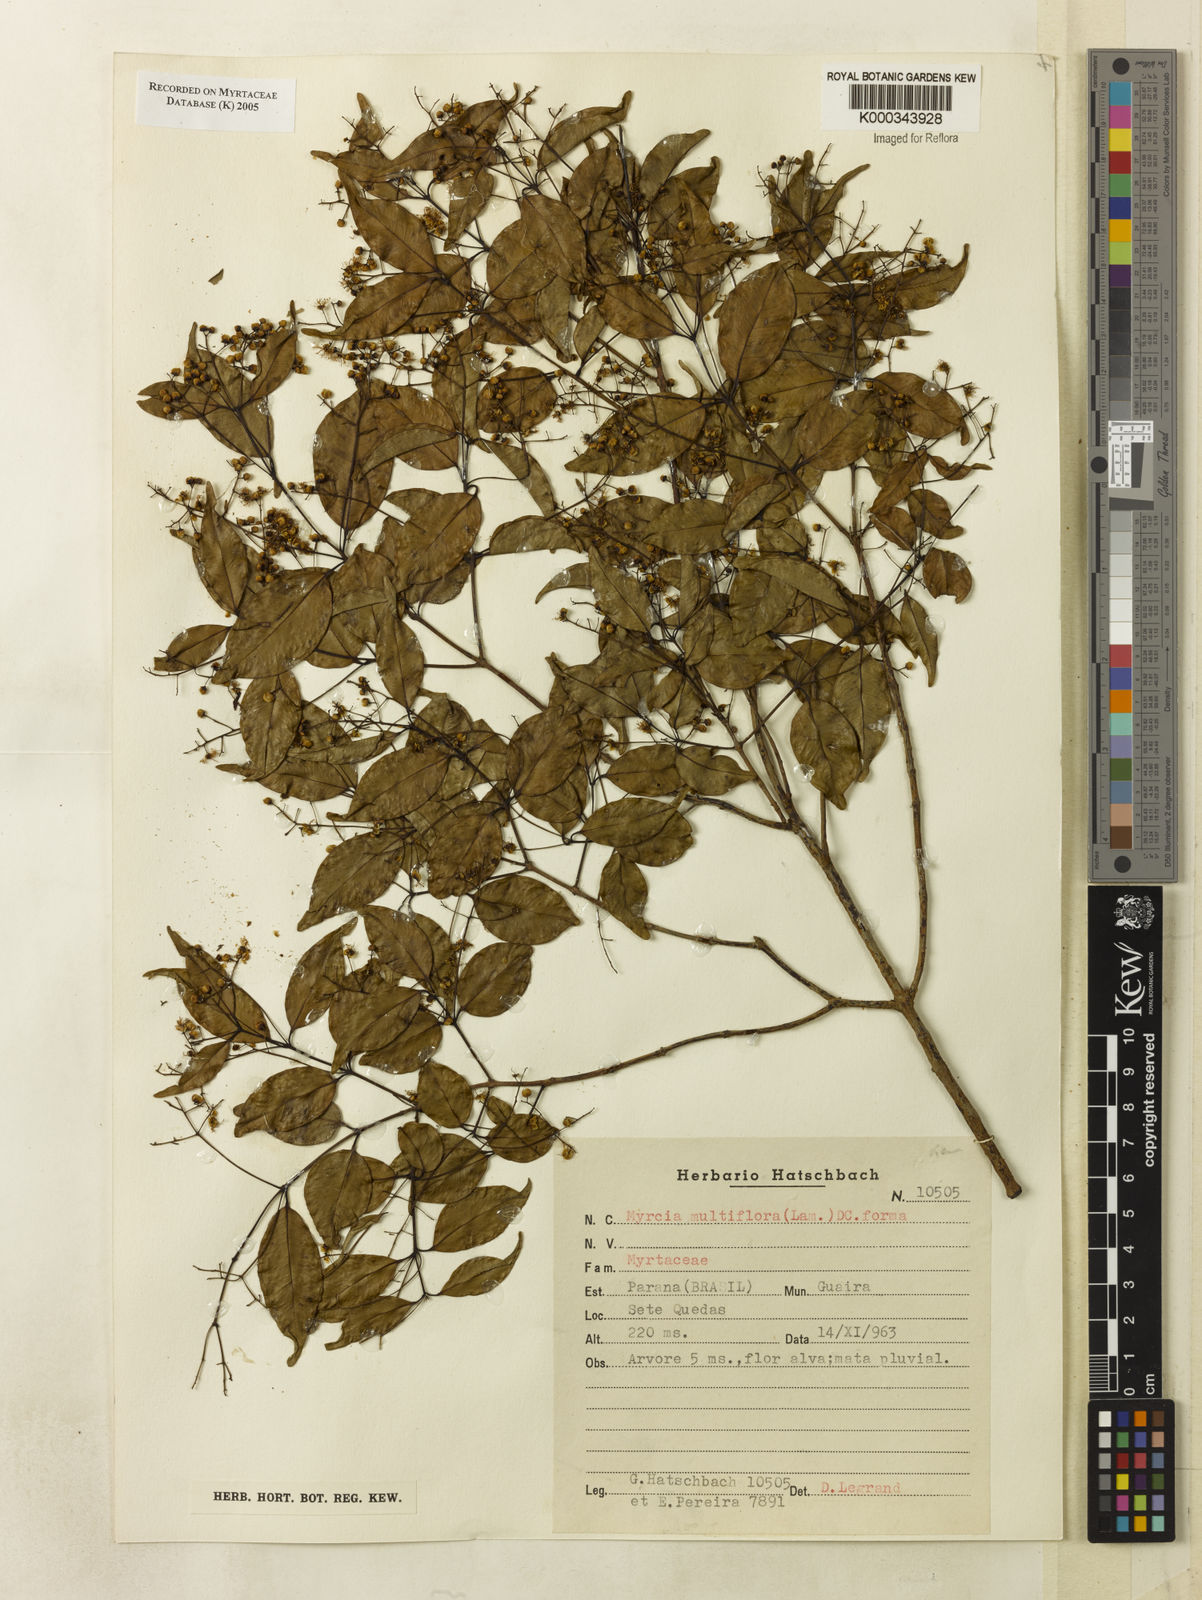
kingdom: Plantae
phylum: Tracheophyta
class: Magnoliopsida
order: Myrtales
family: Myrtaceae
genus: Myrcia
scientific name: Myrcia multiflora
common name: Pedra hume
